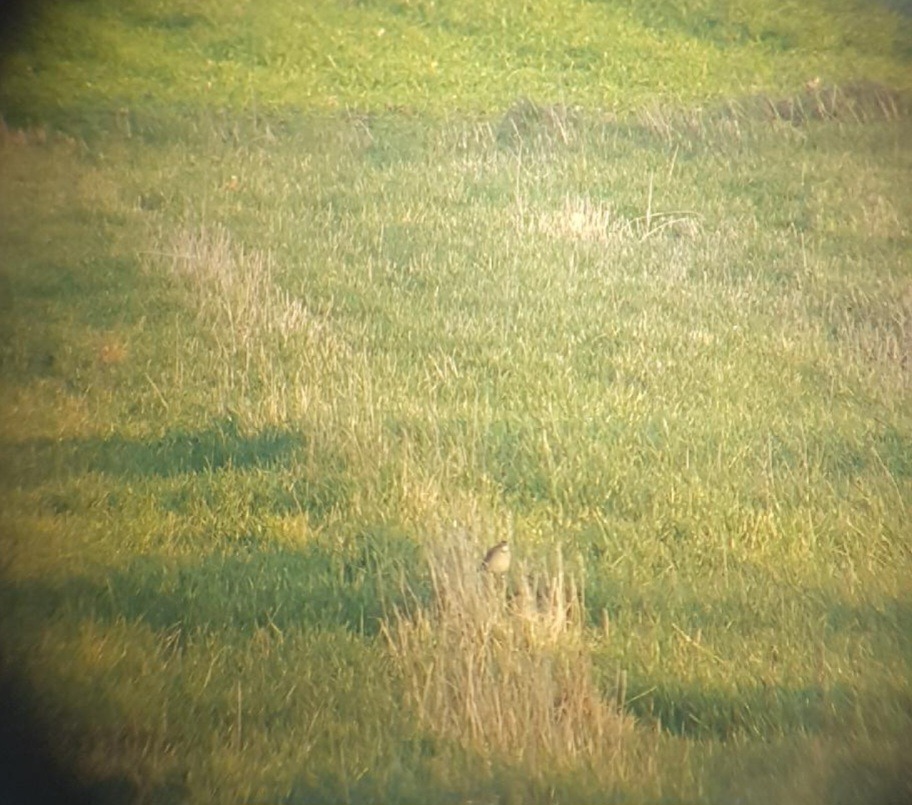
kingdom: Animalia
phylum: Chordata
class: Aves
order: Passeriformes
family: Motacillidae
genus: Anthus
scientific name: Anthus richardi
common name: Storpiber
